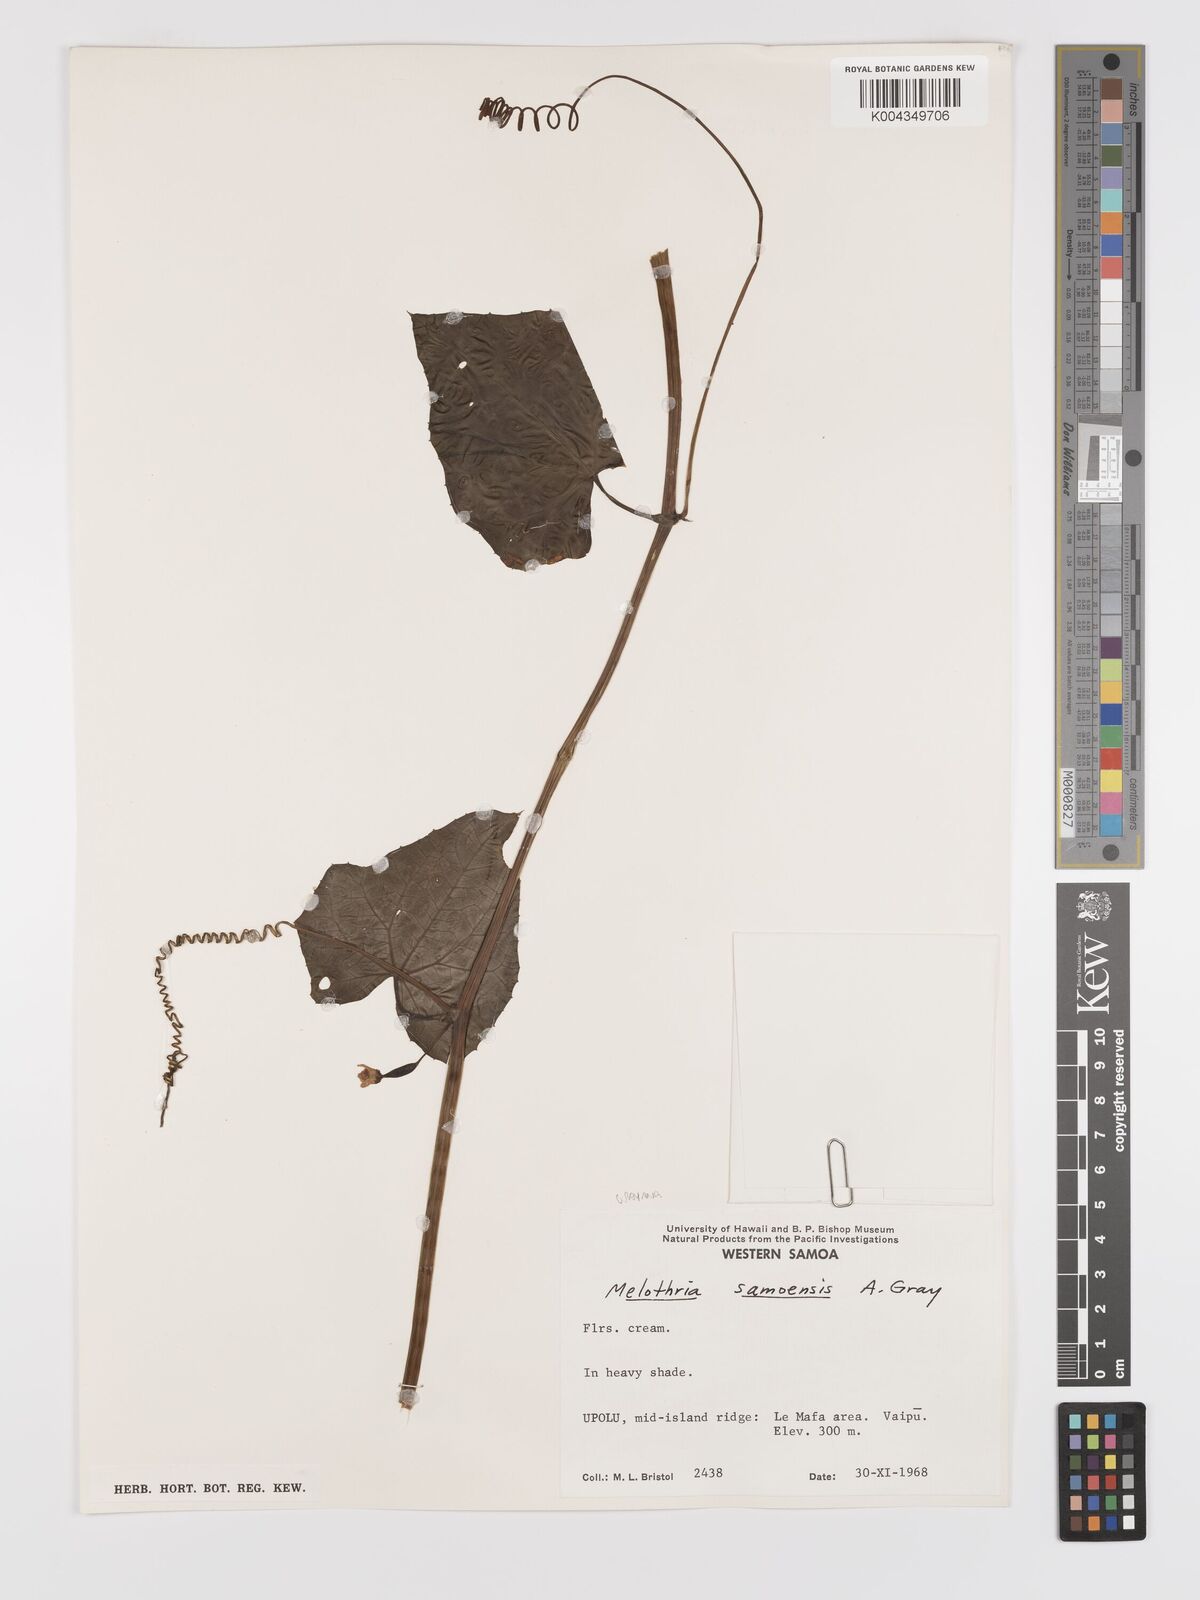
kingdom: Plantae
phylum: Tracheophyta
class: Magnoliopsida
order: Cucurbitales
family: Cucurbitaceae
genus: Zehneria
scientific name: Zehneria
